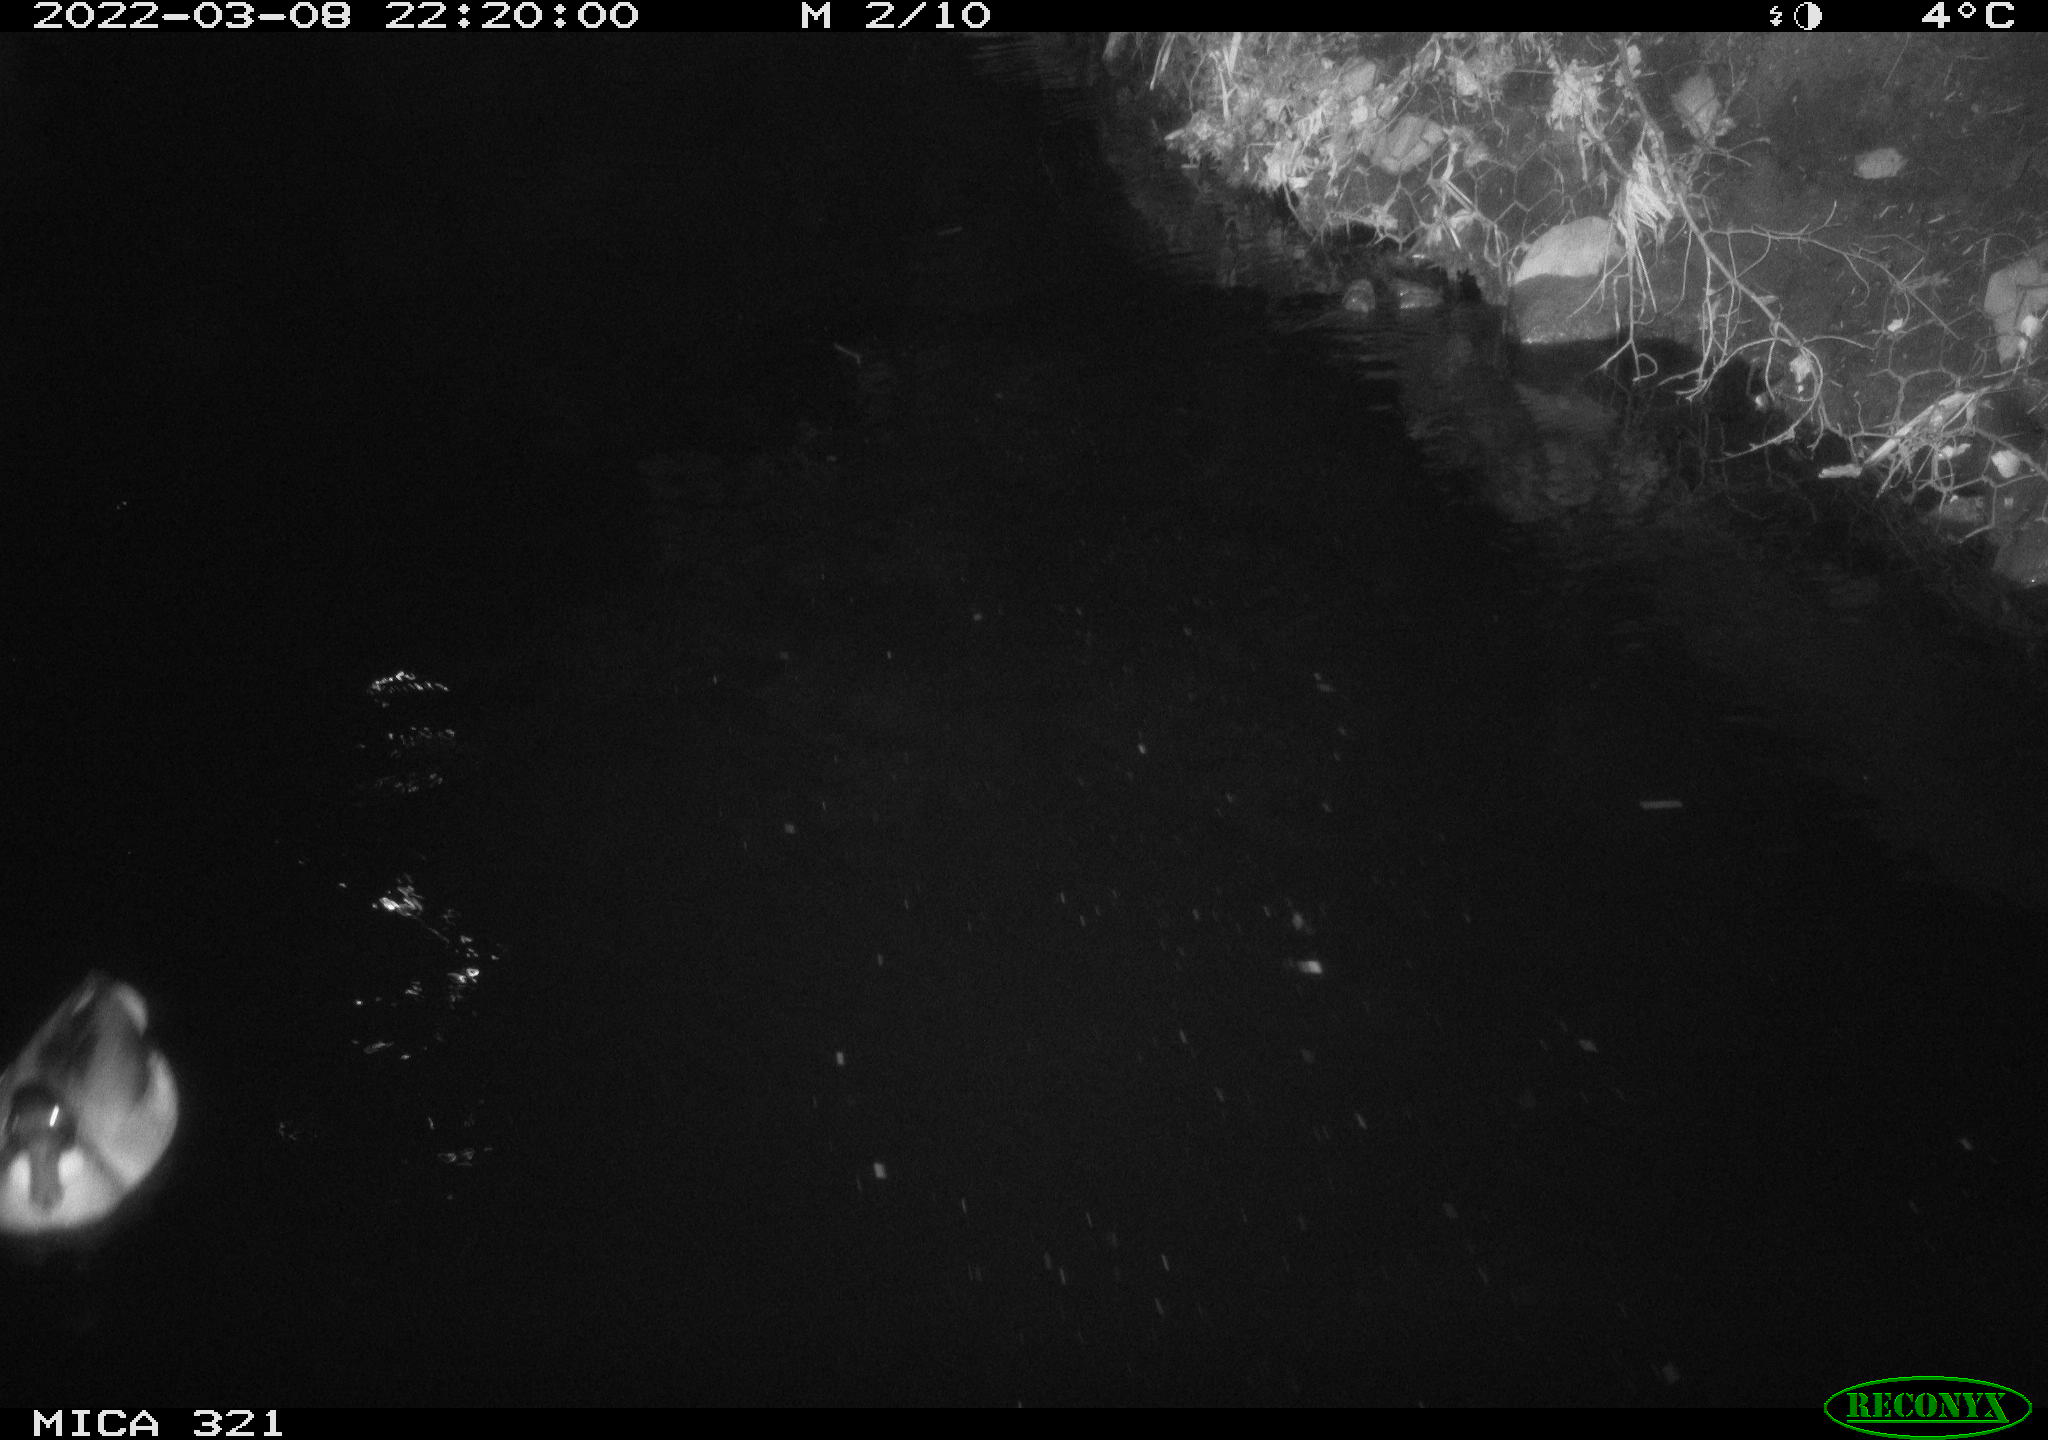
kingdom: Animalia
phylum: Chordata
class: Aves
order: Anseriformes
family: Anatidae
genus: Anas
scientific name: Anas platyrhynchos
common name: Mallard
